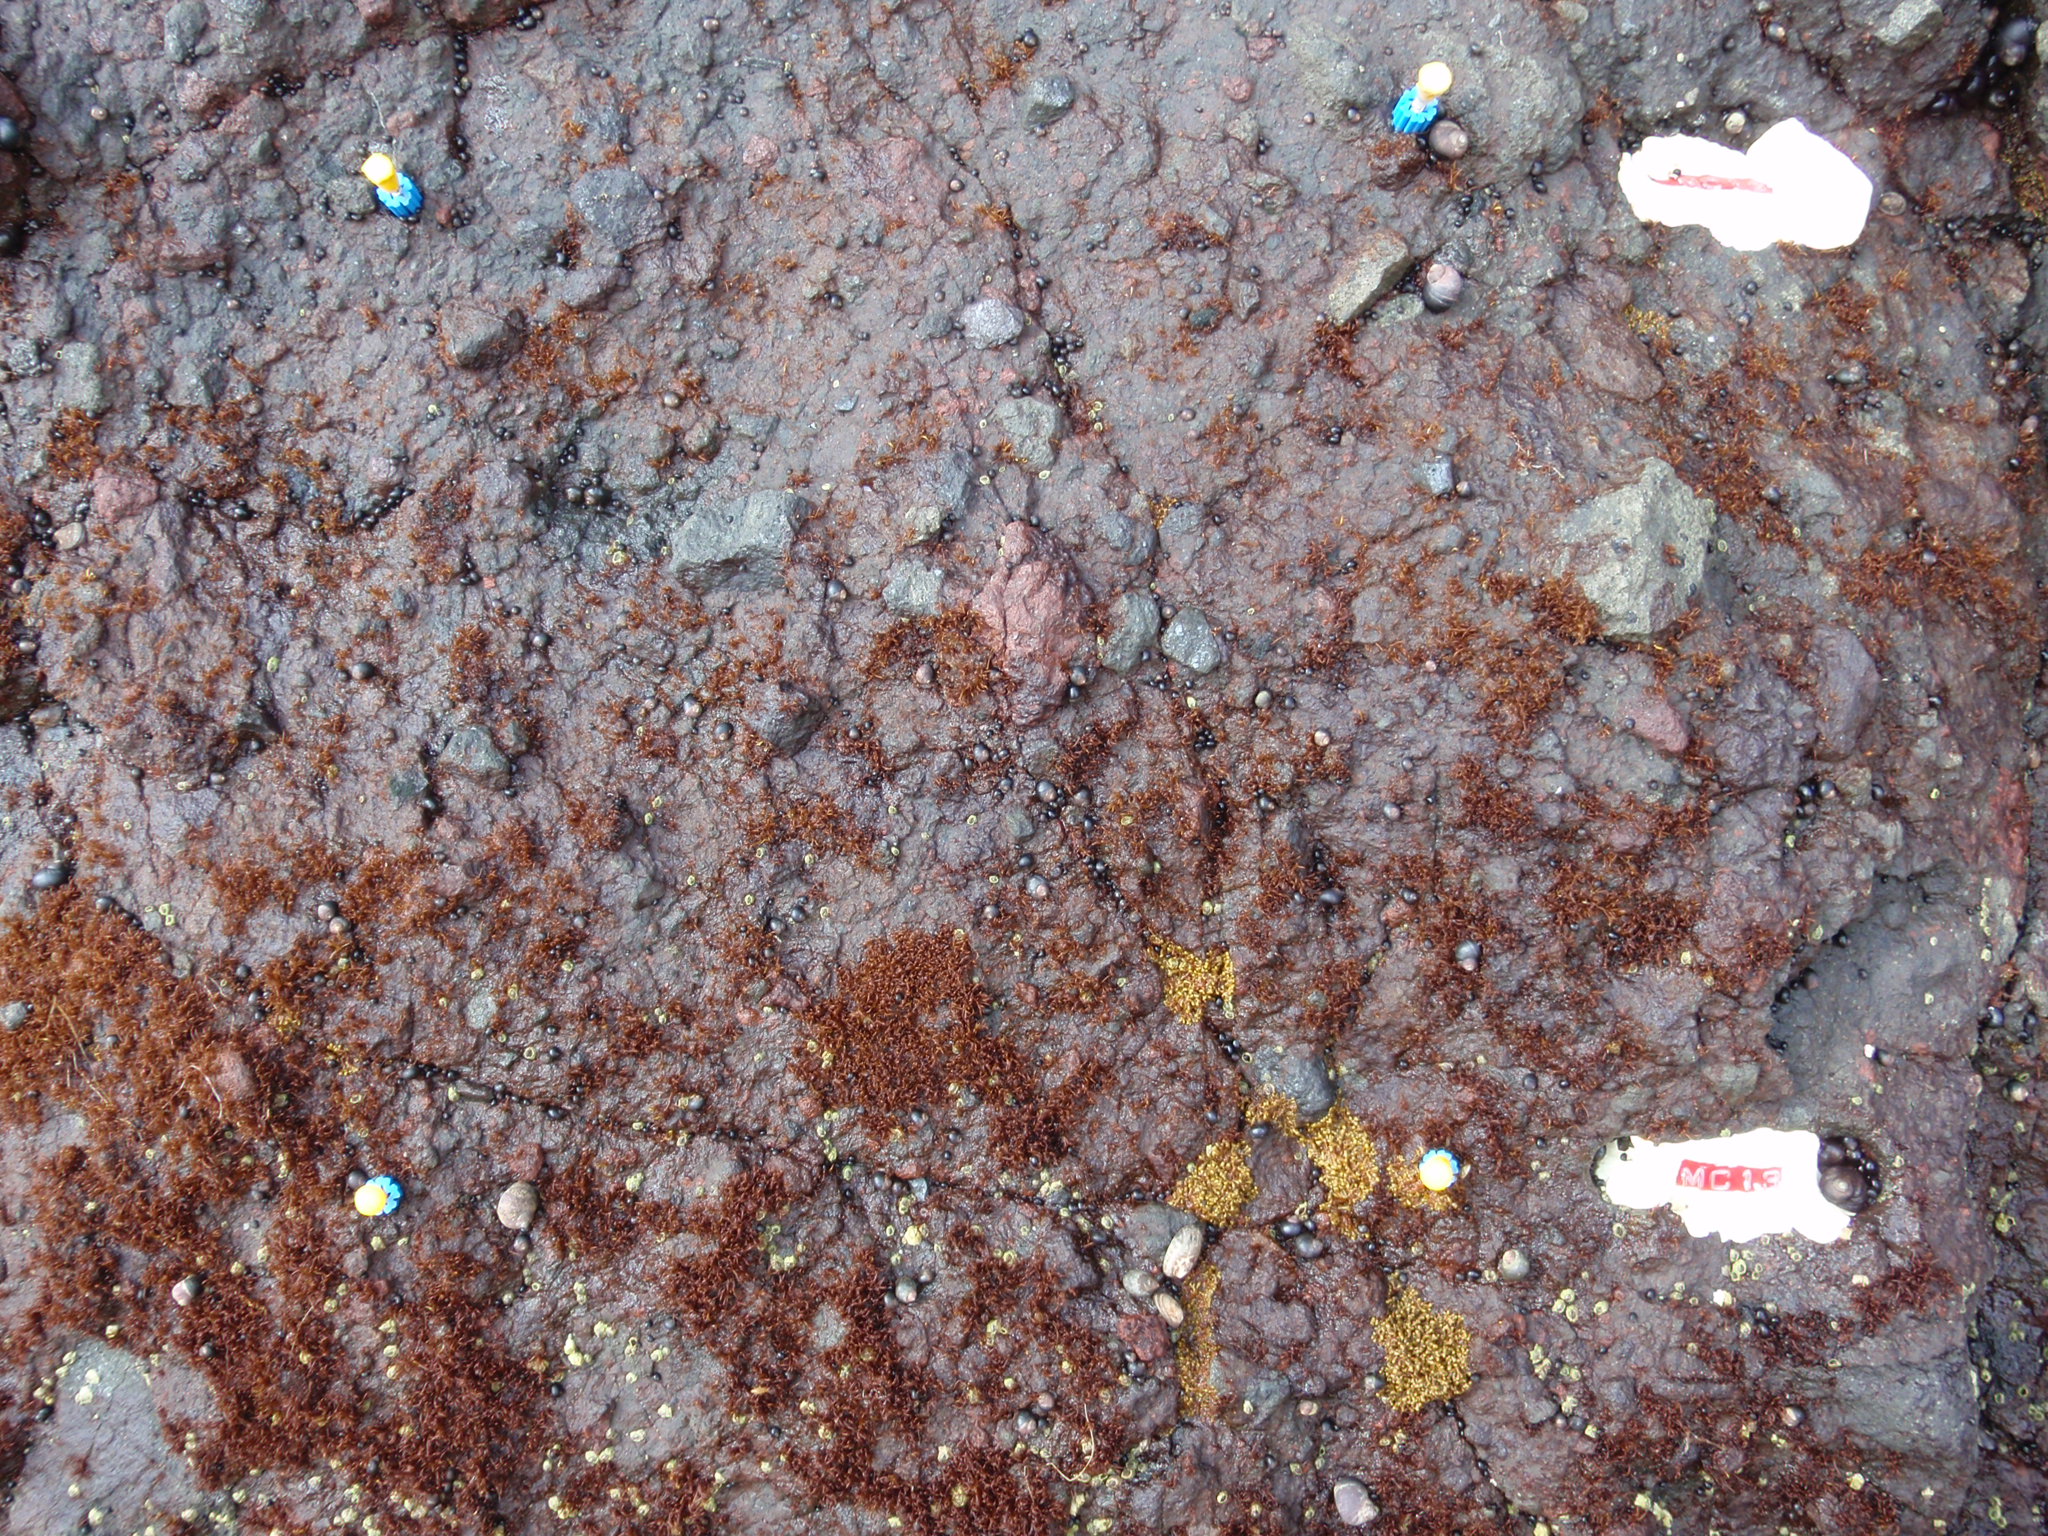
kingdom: Plantae
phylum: Rhodophyta
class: Florideophyceae
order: Gigartinales
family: Endocladiaceae
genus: Gloiopeltis
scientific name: Gloiopeltis furcata
